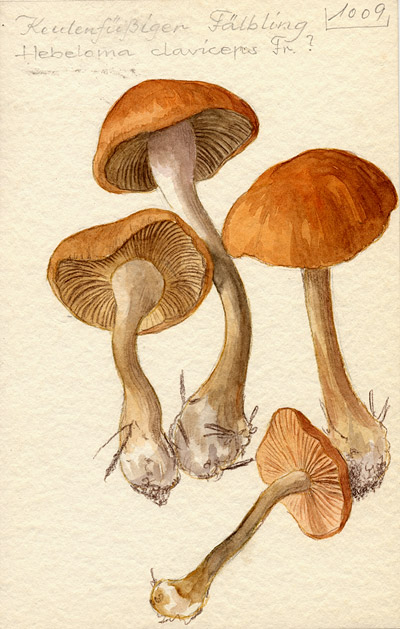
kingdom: Fungi
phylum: Basidiomycota
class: Agaricomycetes
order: Agaricales
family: Hymenogastraceae
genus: Hebeloma
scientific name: Hebeloma claviceps
